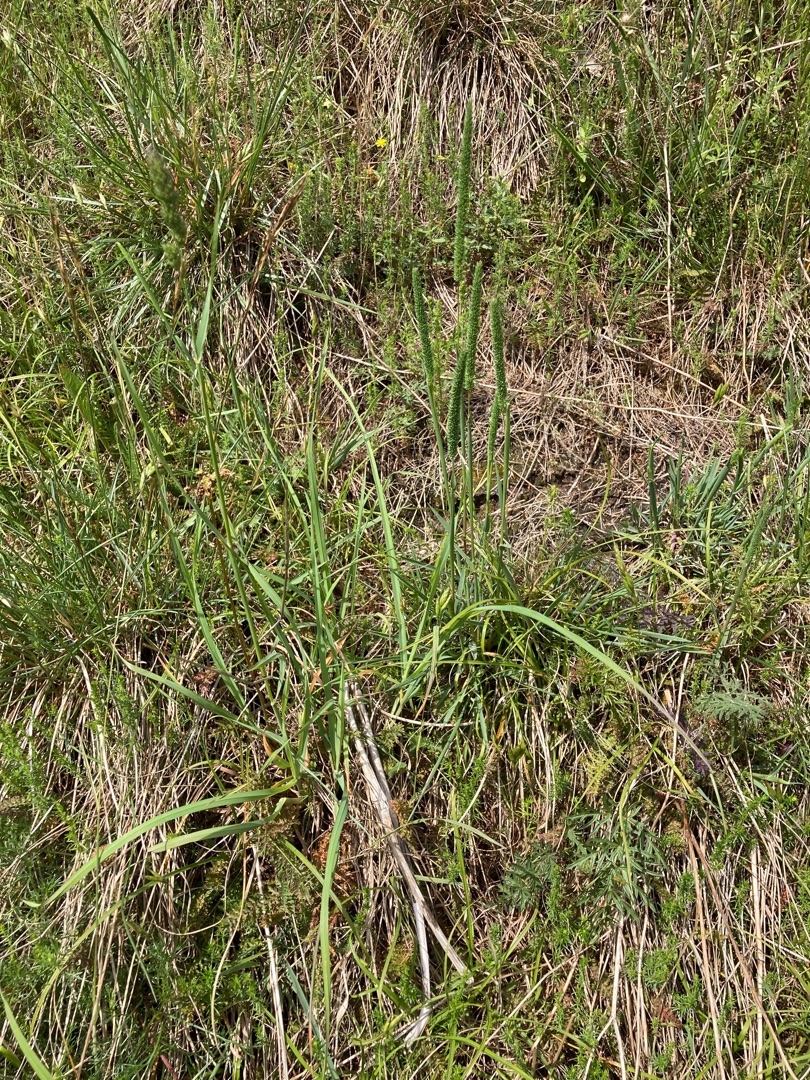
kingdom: Plantae
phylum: Tracheophyta
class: Liliopsida
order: Poales
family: Poaceae
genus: Phleum
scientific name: Phleum phleoides
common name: Glat rottehale
